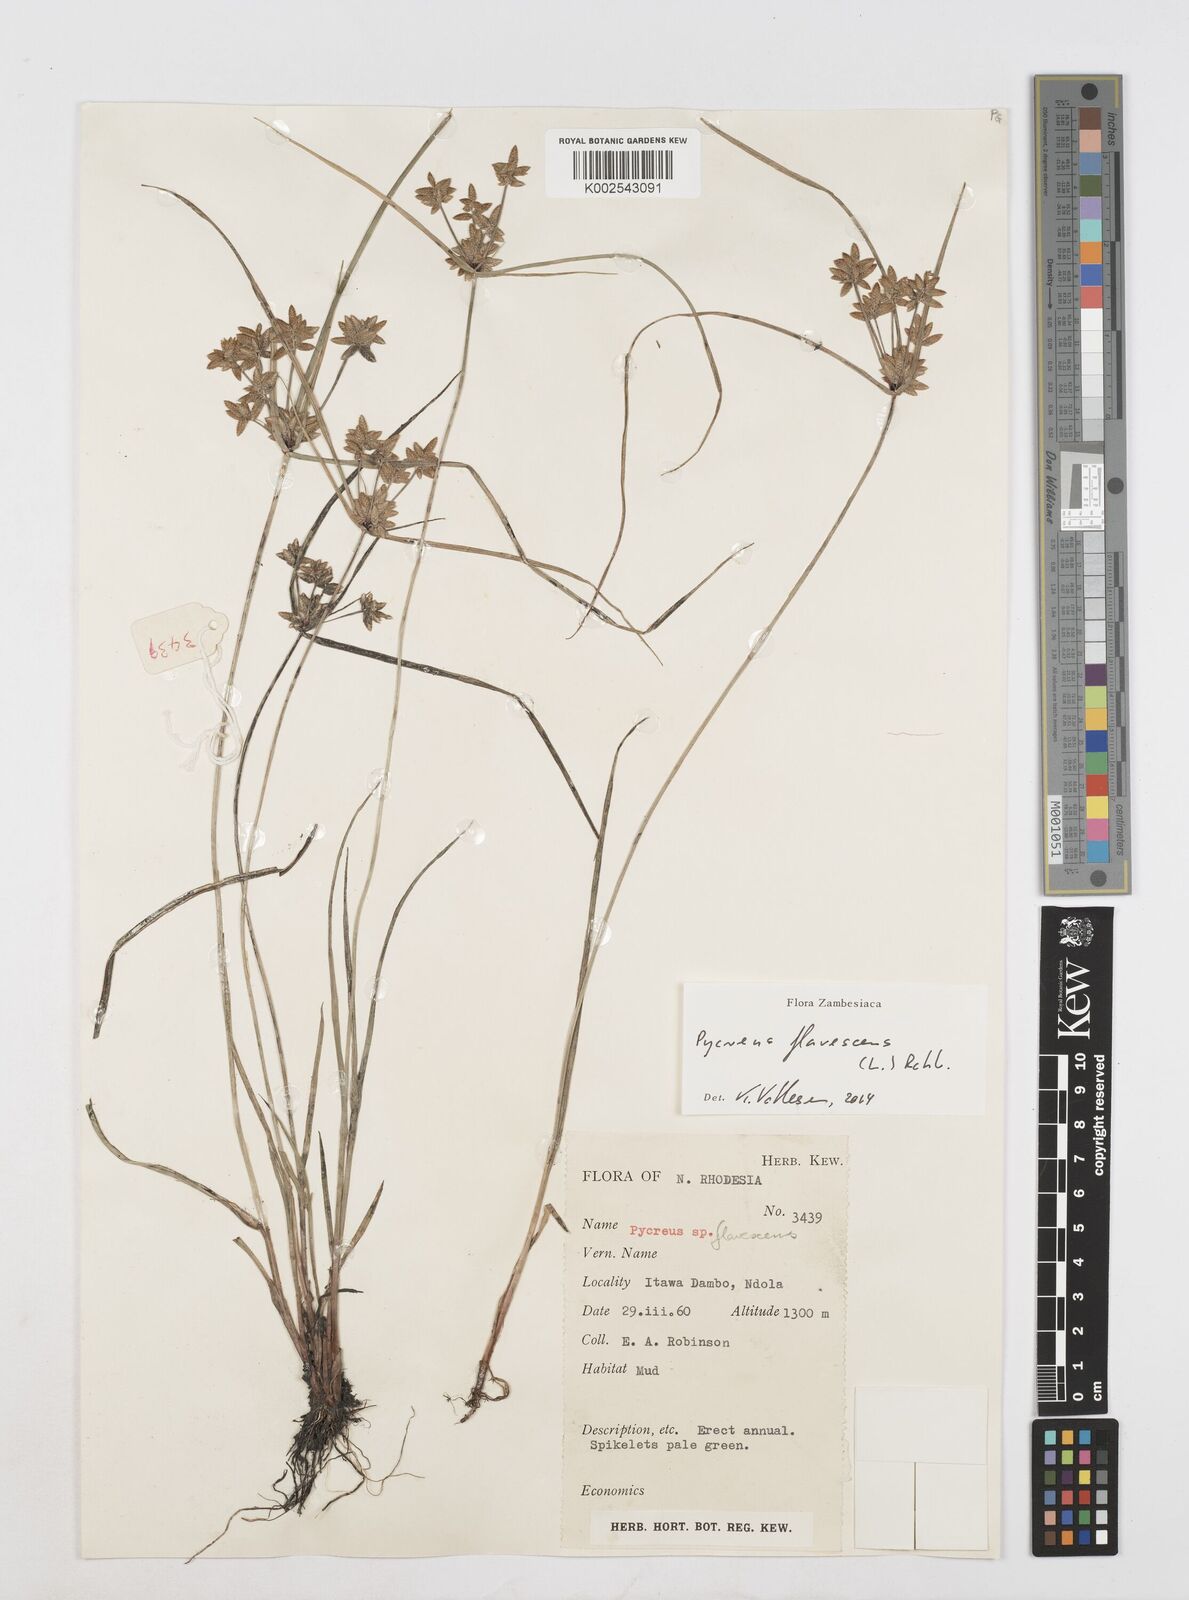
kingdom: Plantae
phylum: Tracheophyta
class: Liliopsida
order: Poales
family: Cyperaceae
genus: Cyperus
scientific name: Cyperus flavescens
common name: Yellow galingale
